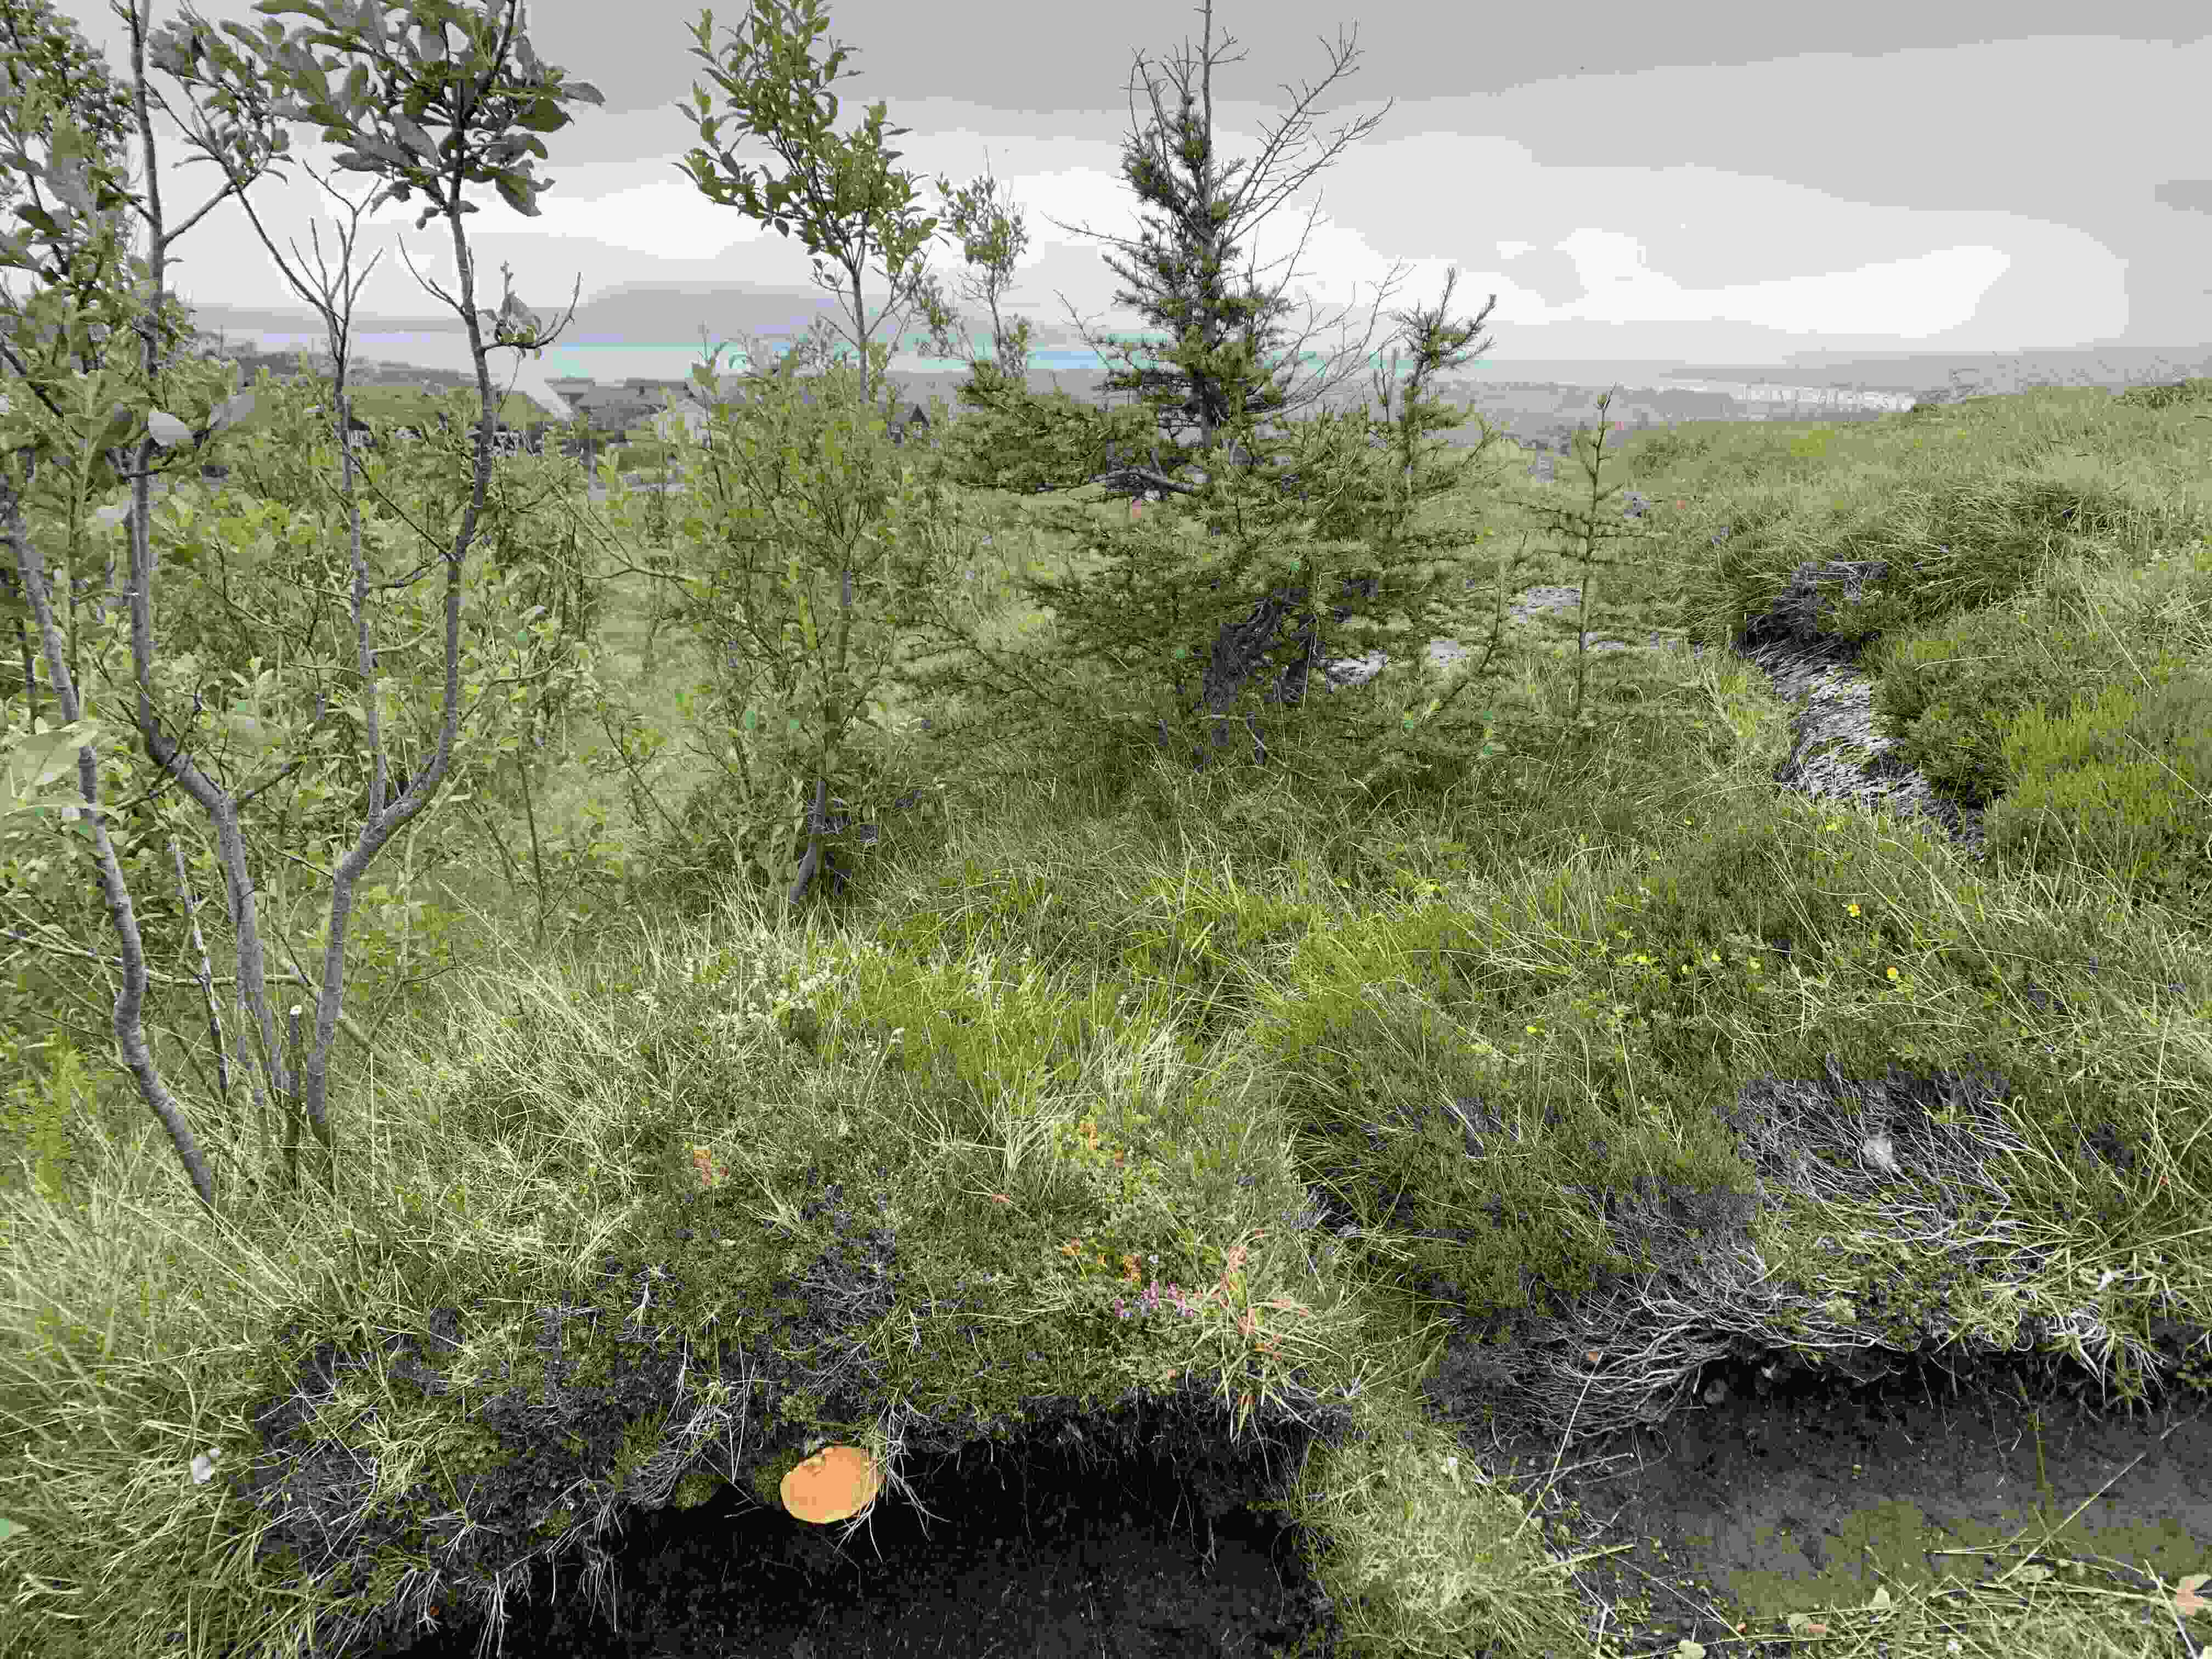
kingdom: Fungi
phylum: Basidiomycota
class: Agaricomycetes
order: Boletales
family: Suillaceae
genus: Suillus
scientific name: Suillus grevillei
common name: lærke-slimrørhat
